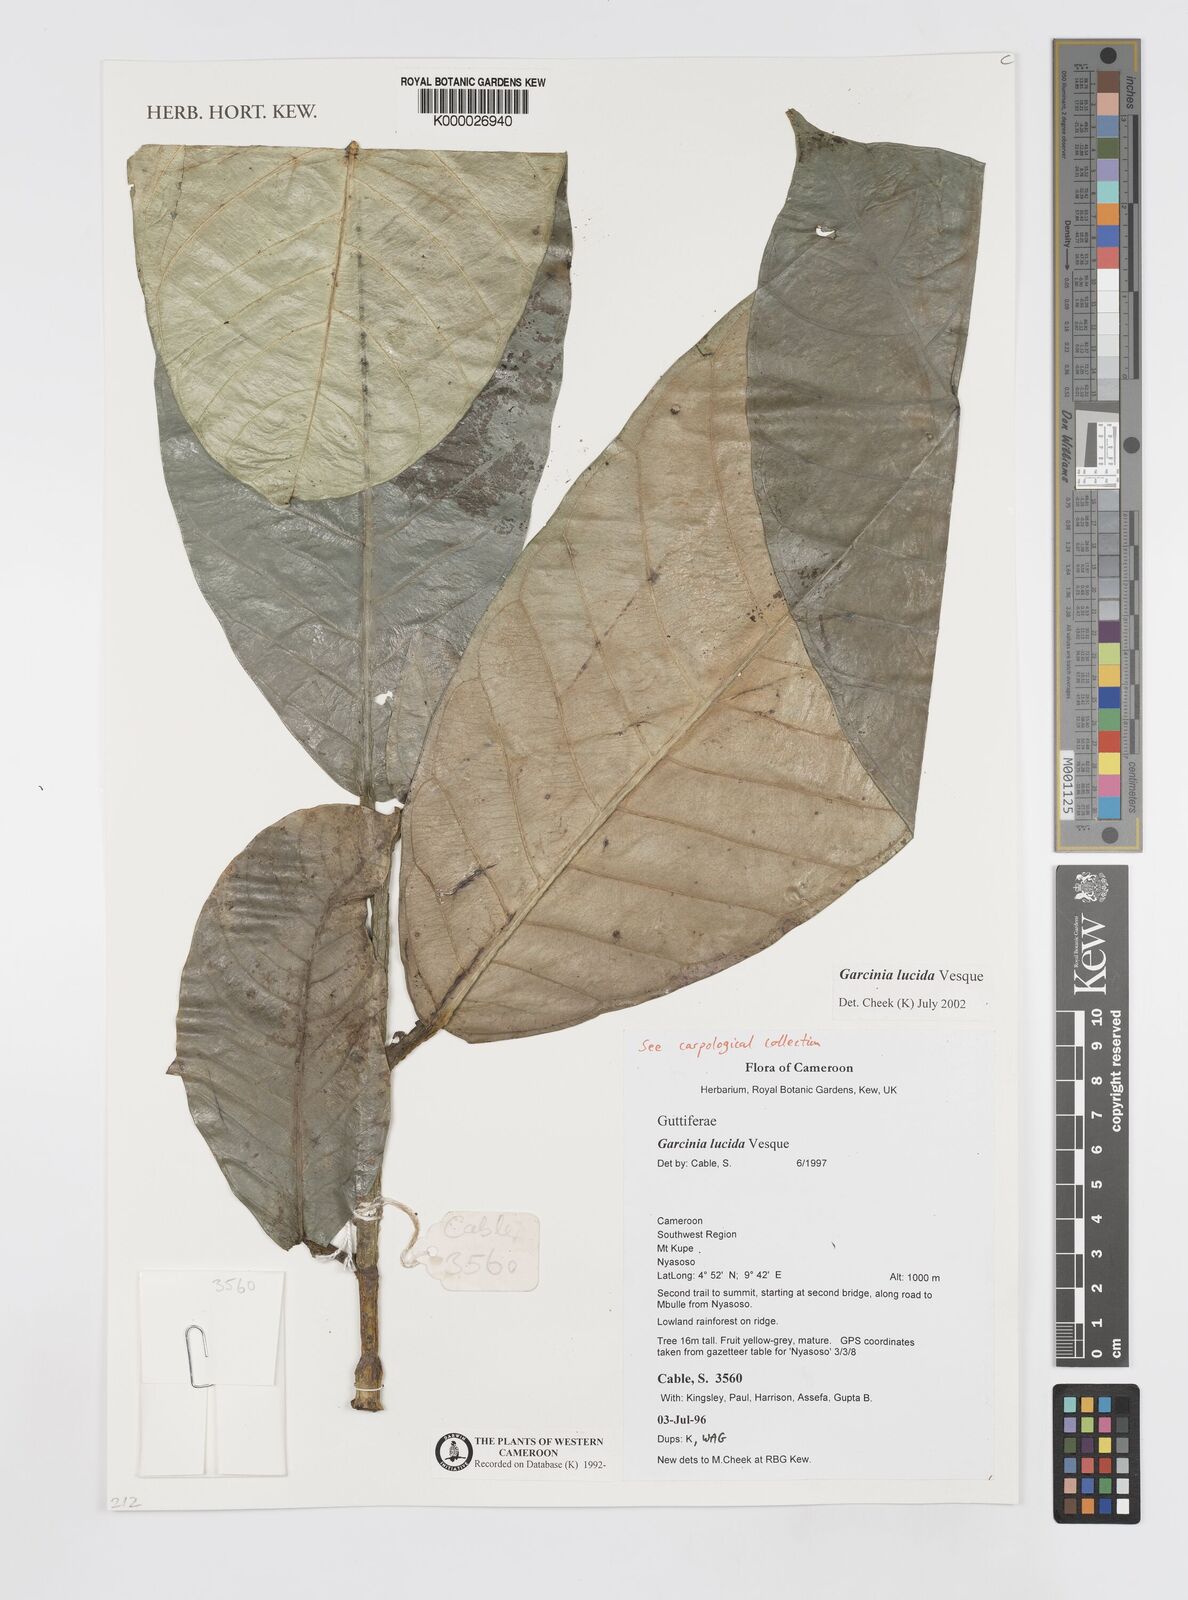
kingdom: Plantae
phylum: Tracheophyta
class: Magnoliopsida
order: Malpighiales
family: Clusiaceae
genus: Garcinia
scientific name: Garcinia lucida
